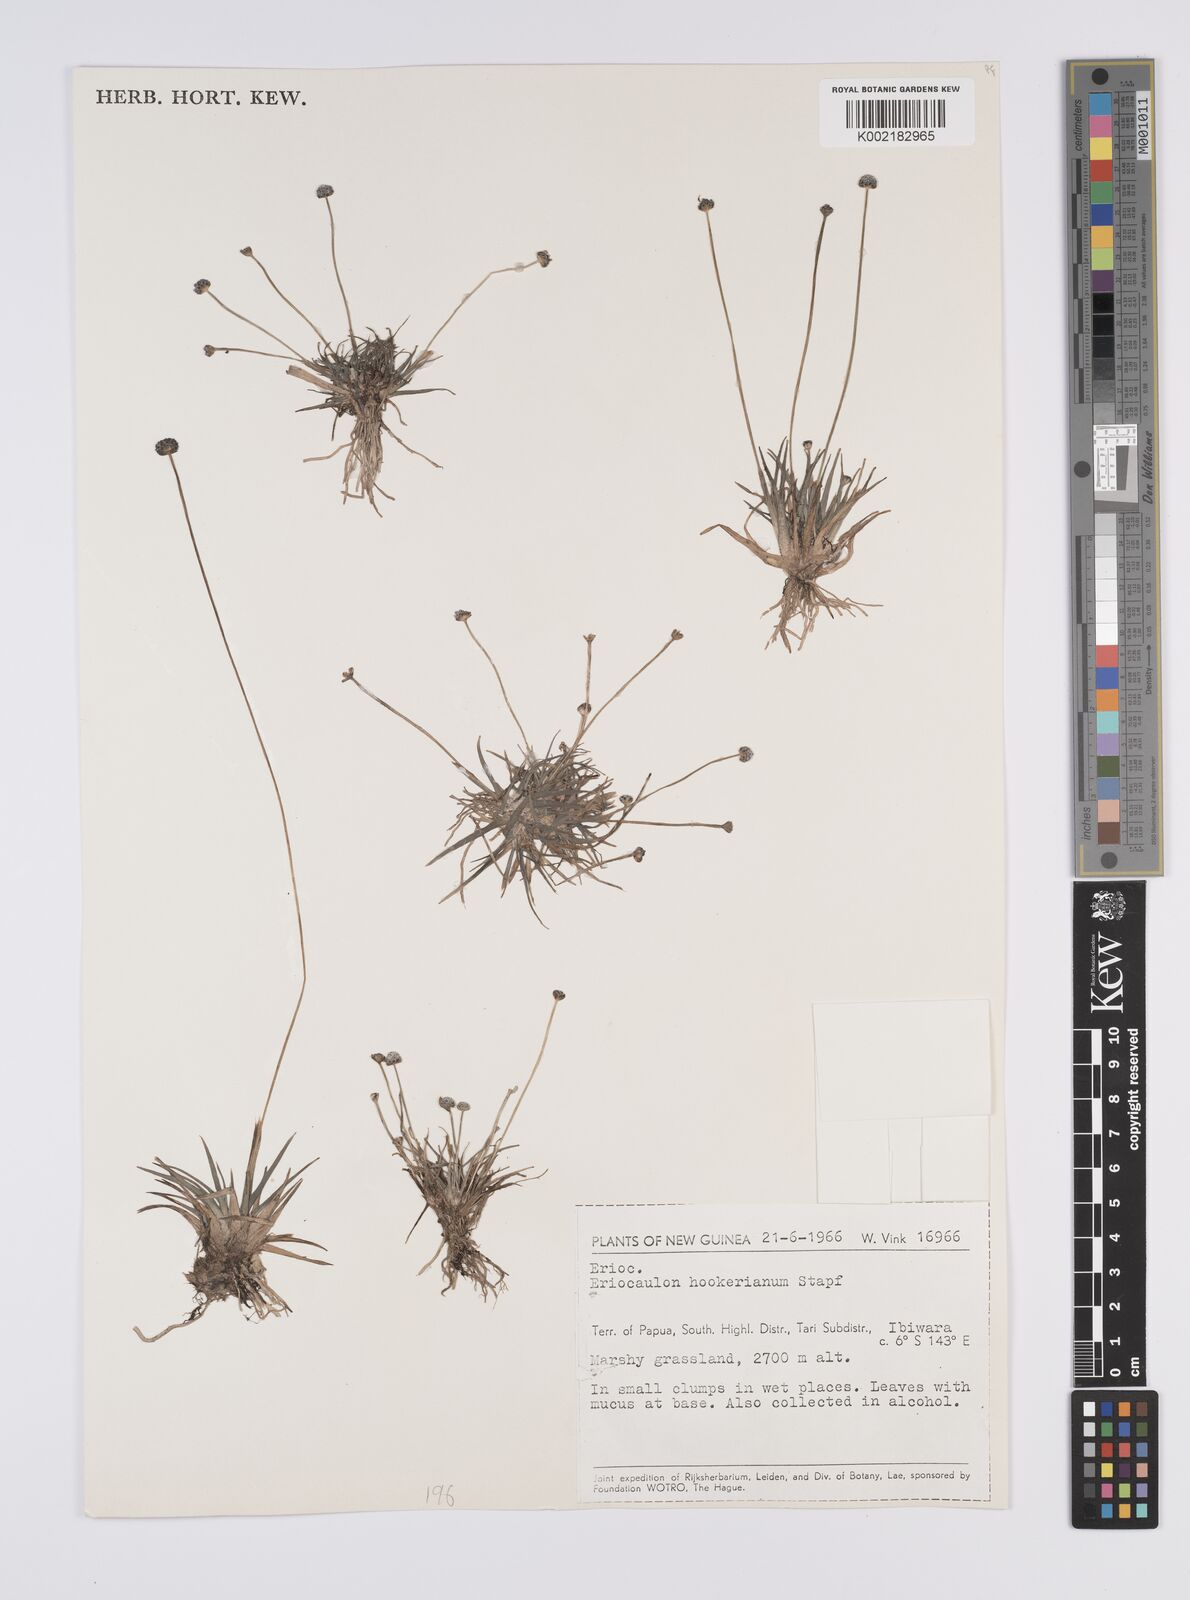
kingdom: Plantae
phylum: Tracheophyta
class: Liliopsida
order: Poales
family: Eriocaulaceae
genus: Eriocaulon
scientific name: Eriocaulon hookerianum
